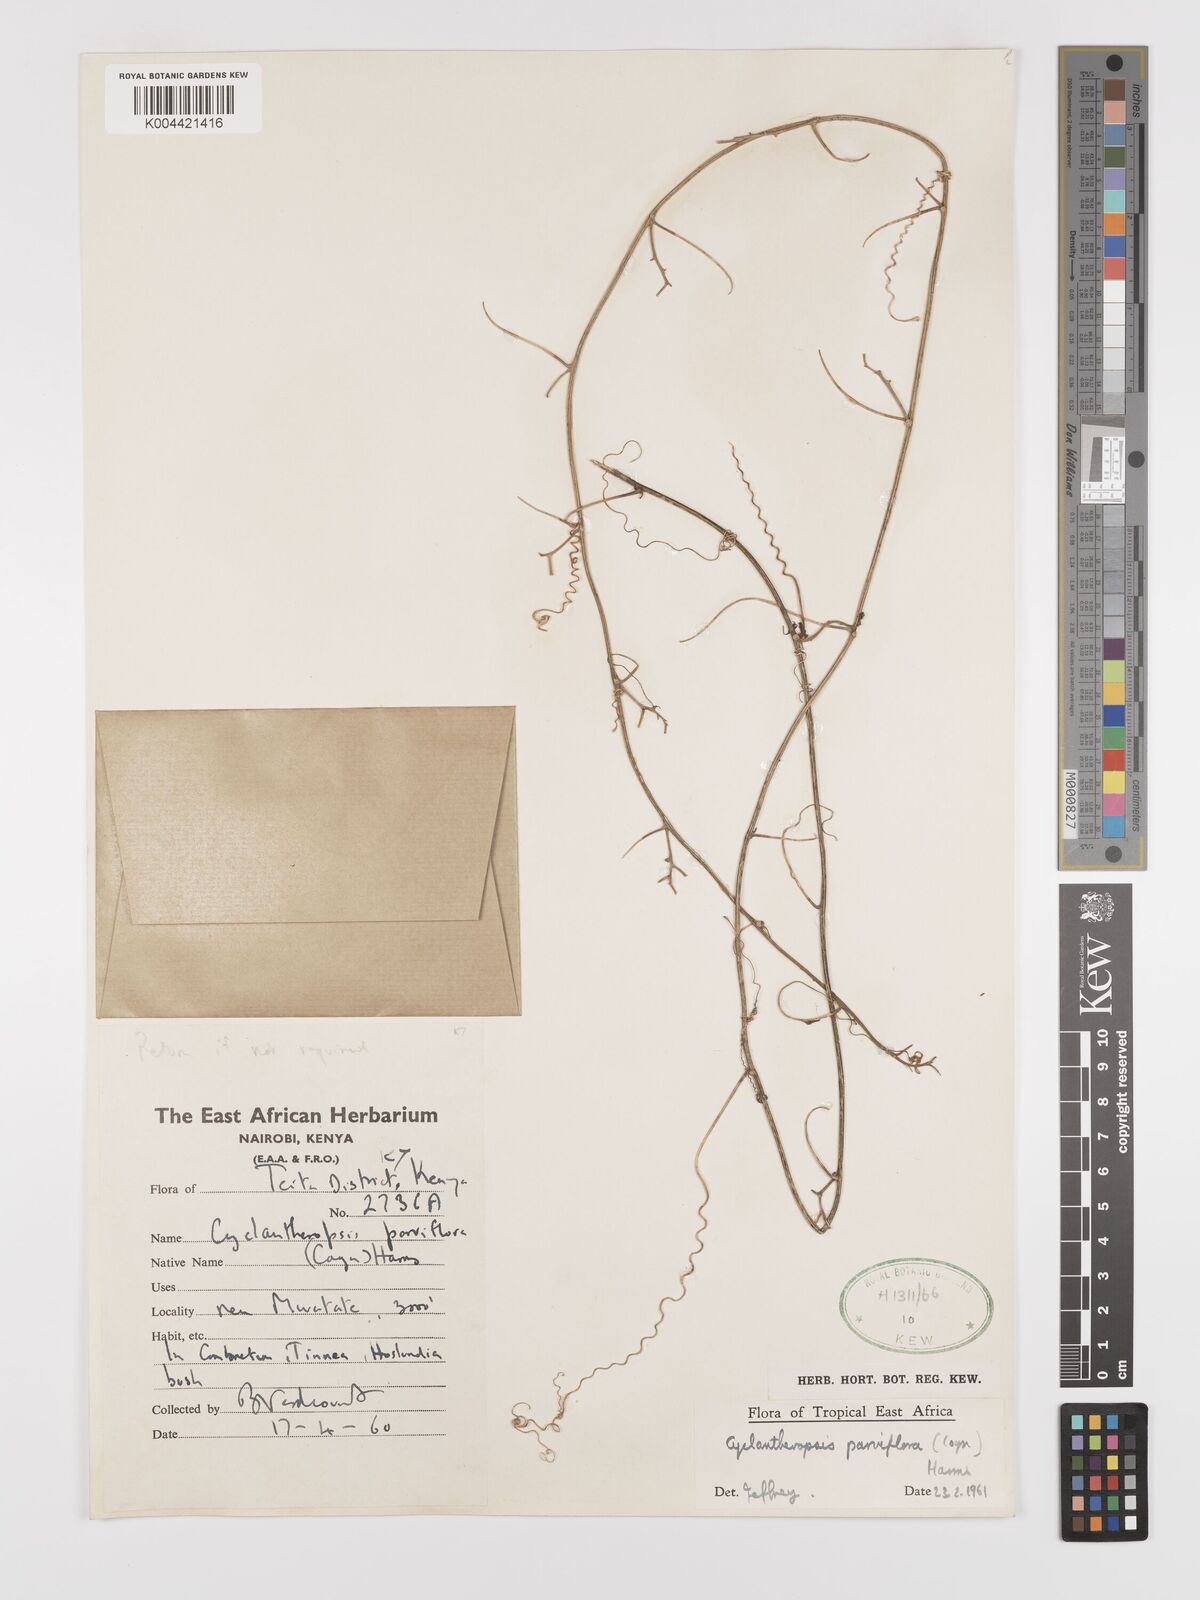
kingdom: Plantae
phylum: Tracheophyta
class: Magnoliopsida
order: Cucurbitales
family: Cucurbitaceae
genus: Cyclantheropsis
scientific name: Cyclantheropsis parviflora
